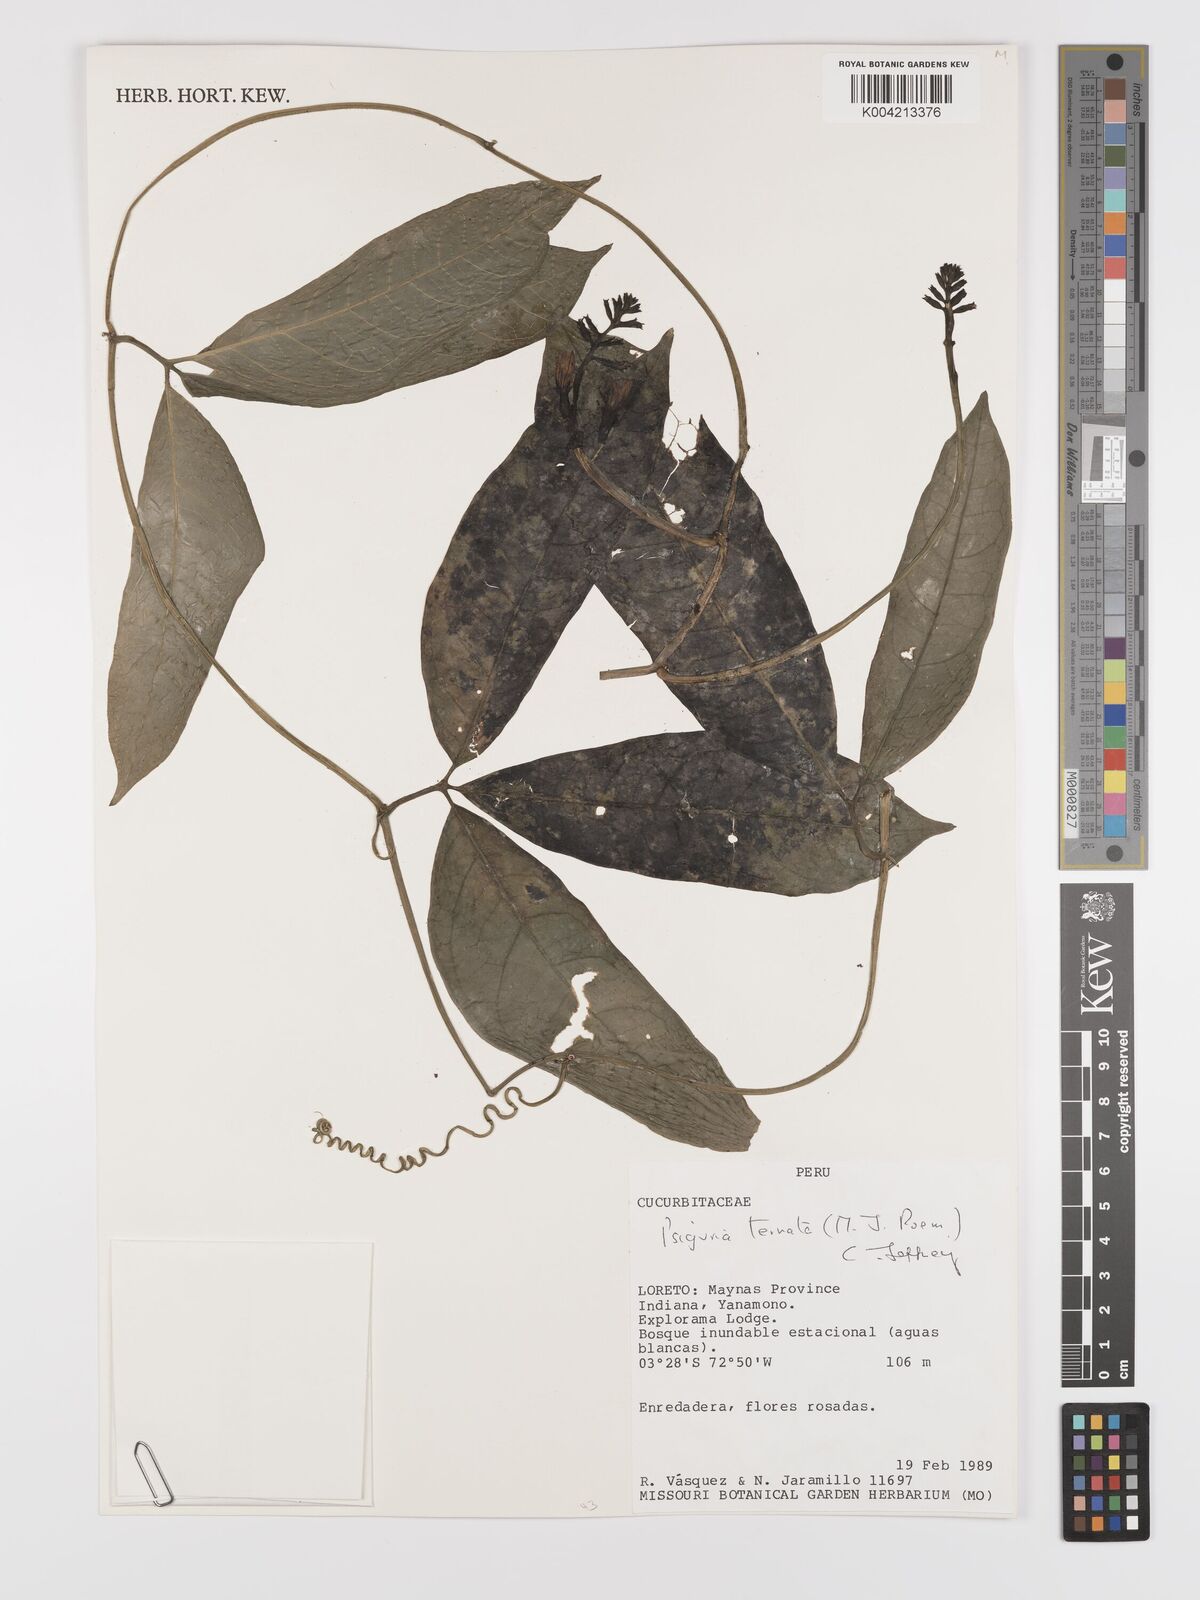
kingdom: Plantae
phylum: Tracheophyta
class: Magnoliopsida
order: Cucurbitales
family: Cucurbitaceae
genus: Psiguria
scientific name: Psiguria ternata
